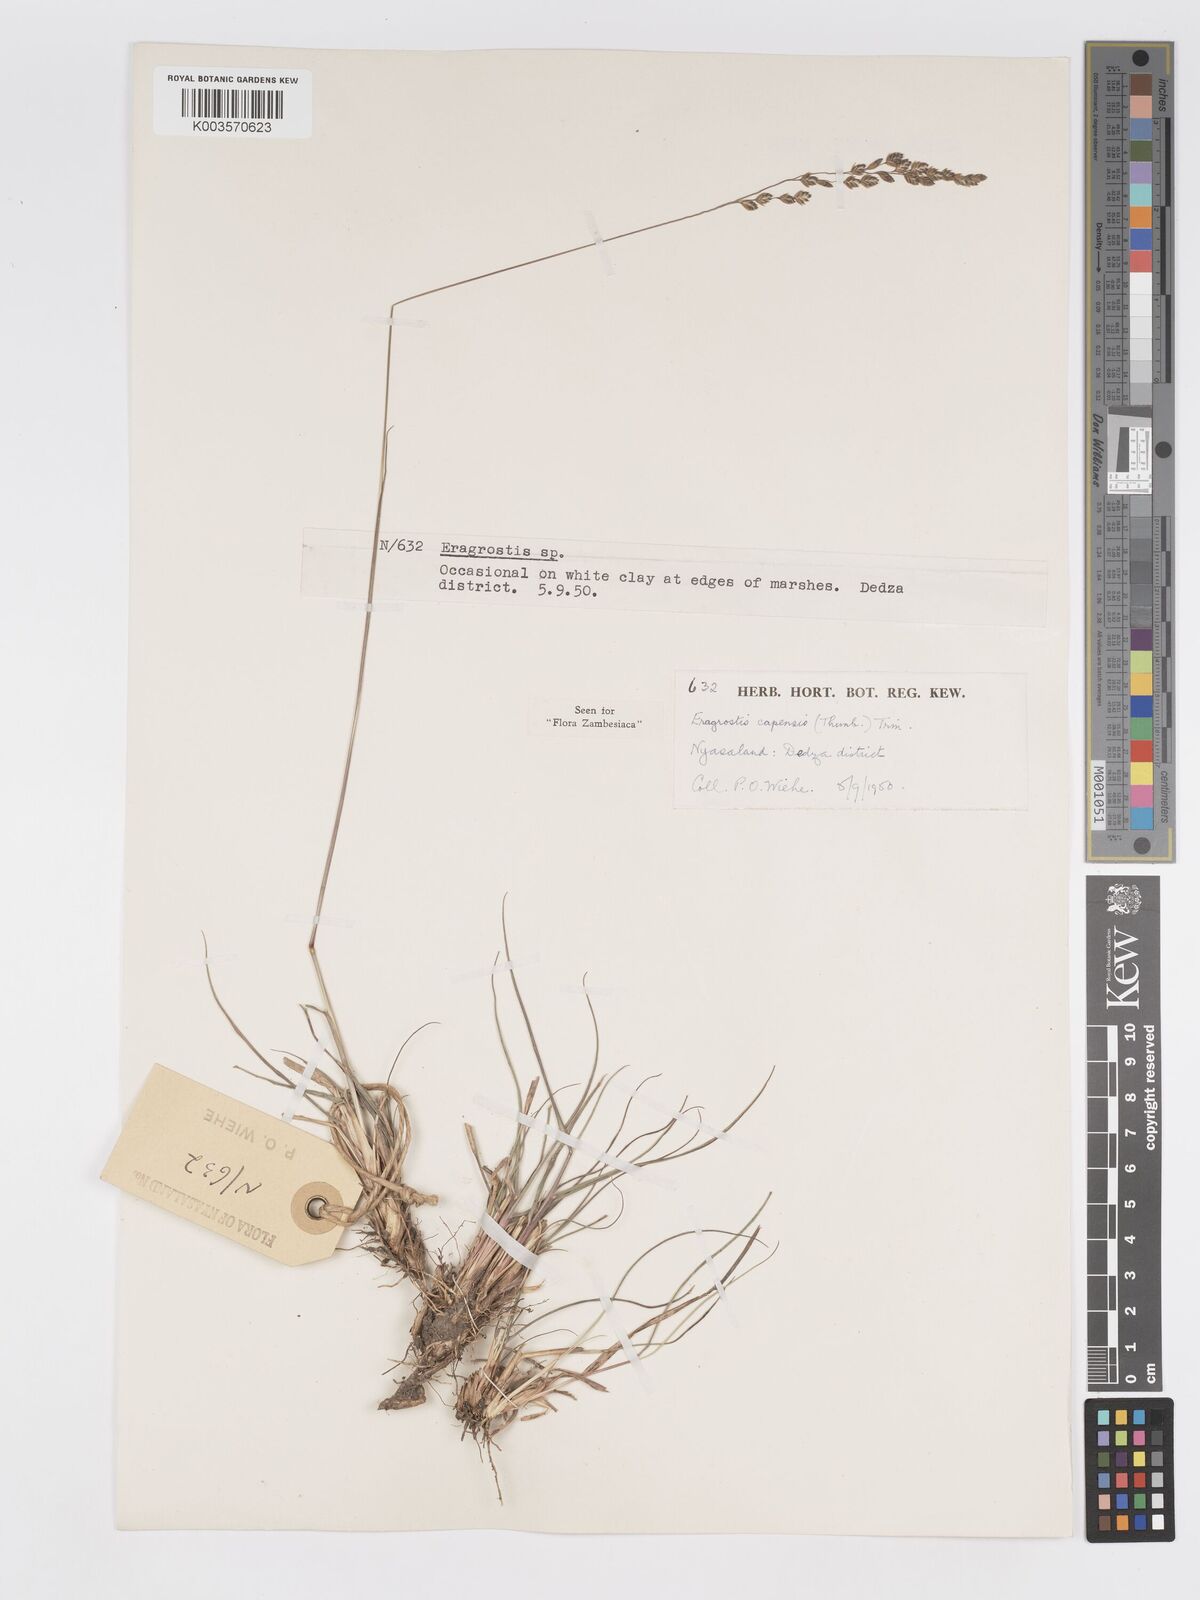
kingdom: Plantae
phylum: Tracheophyta
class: Liliopsida
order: Poales
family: Poaceae
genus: Eragrostis
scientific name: Eragrostis capensis
